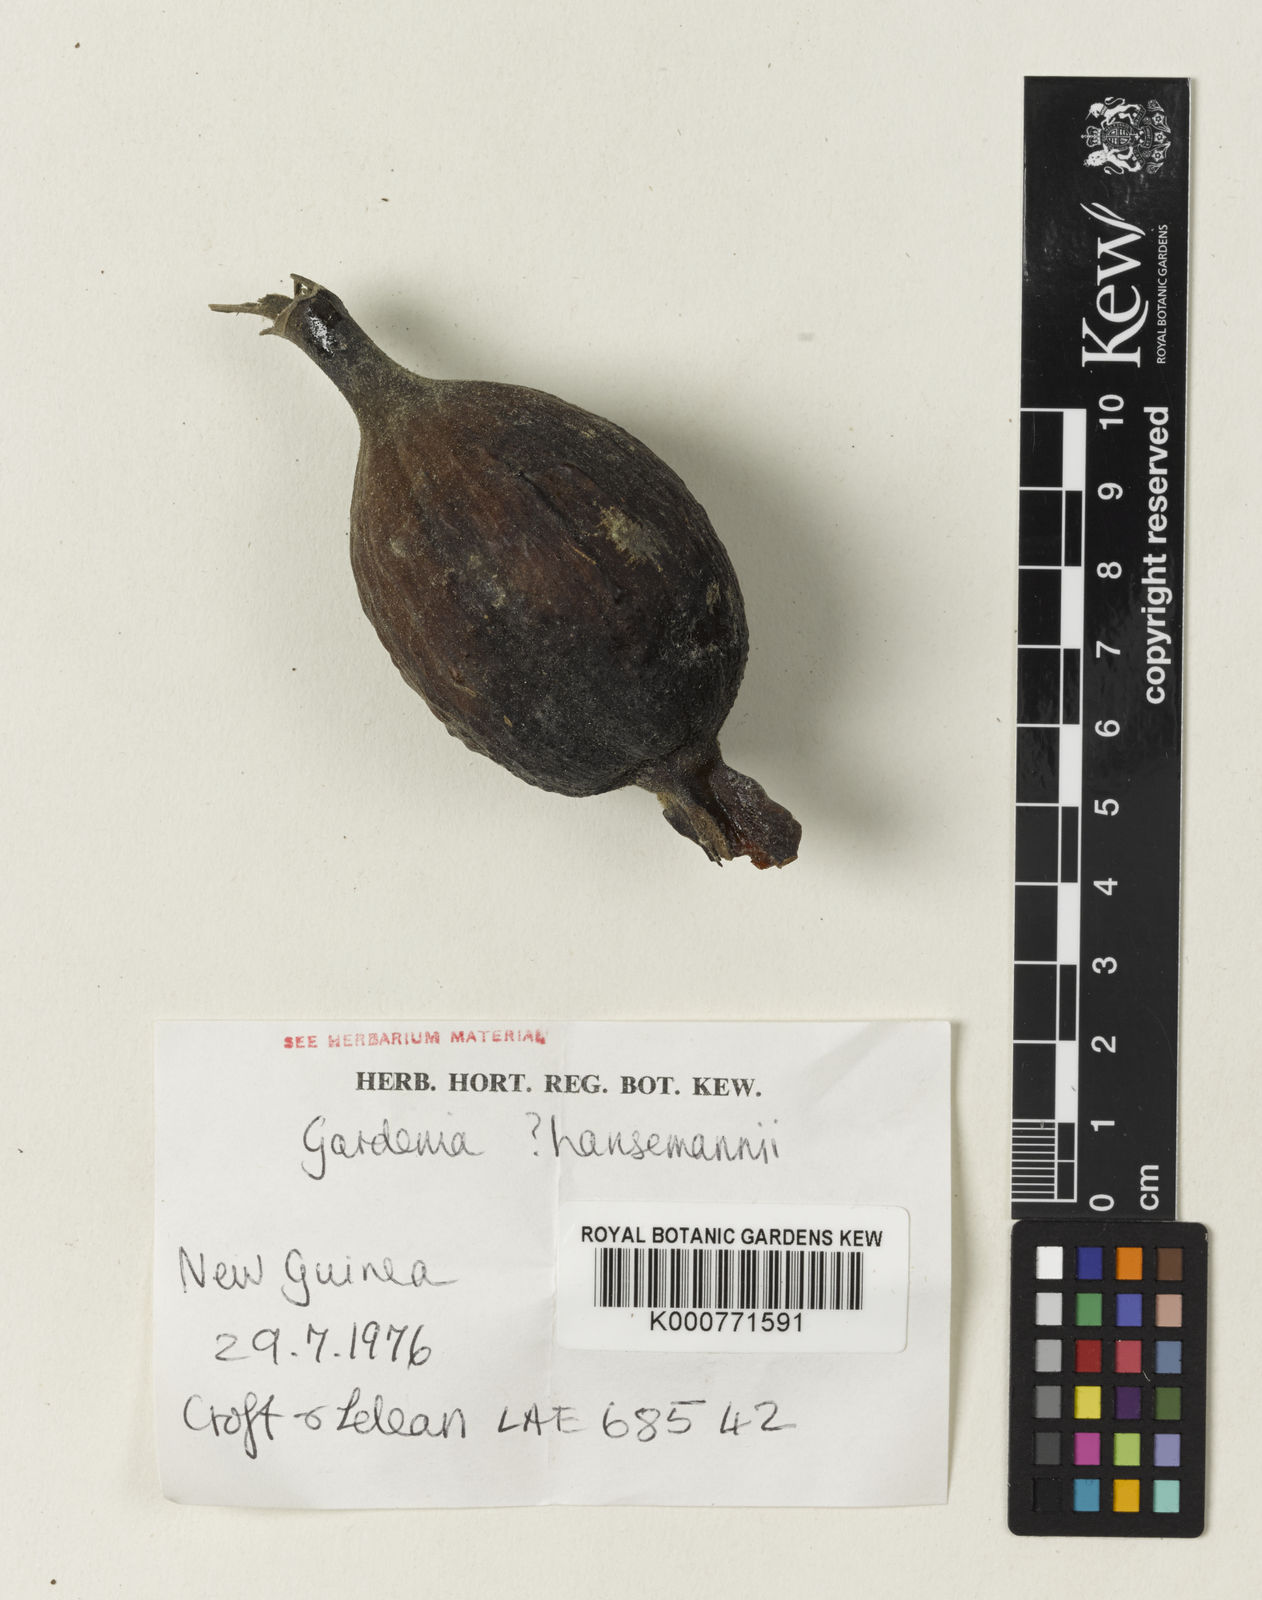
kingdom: Plantae
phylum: Tracheophyta
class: Magnoliopsida
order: Gentianales
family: Rubiaceae
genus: Gardenia
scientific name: Gardenia
